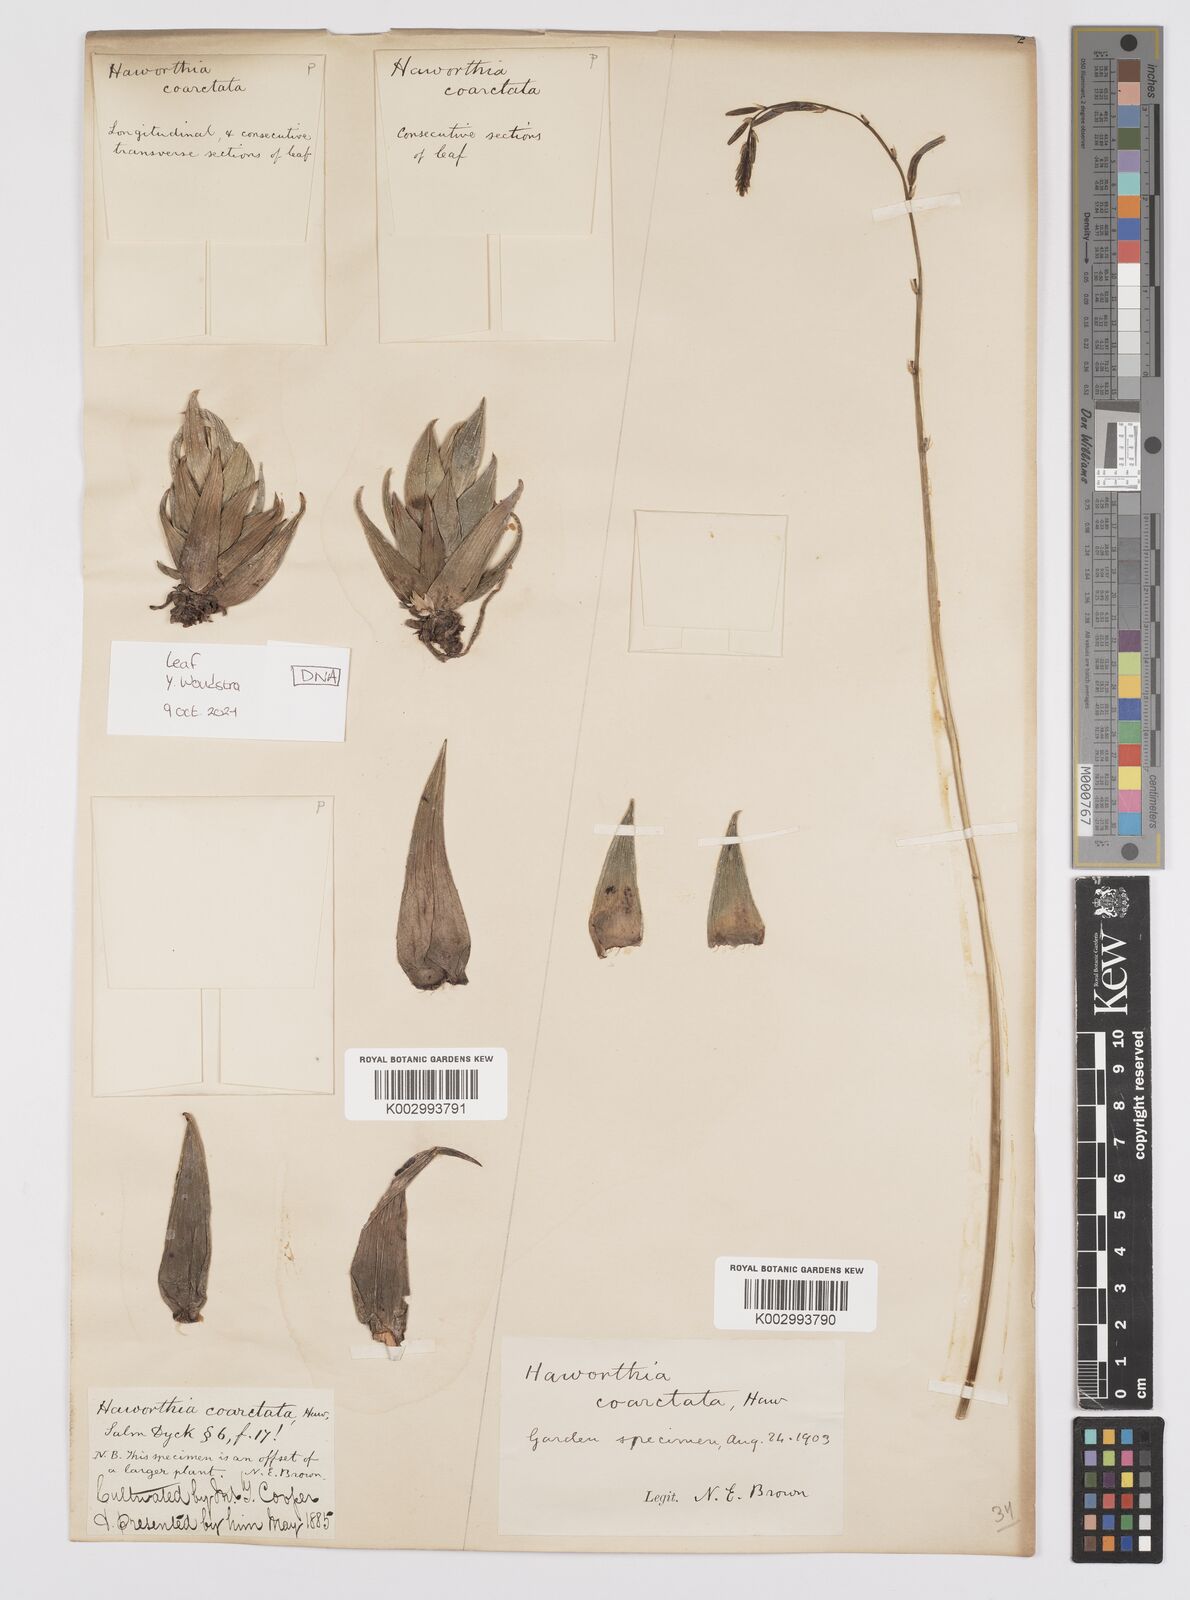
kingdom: Plantae
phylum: Tracheophyta
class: Liliopsida
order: Asparagales
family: Asphodelaceae
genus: Haworthiopsis
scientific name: Haworthiopsis coarctata
